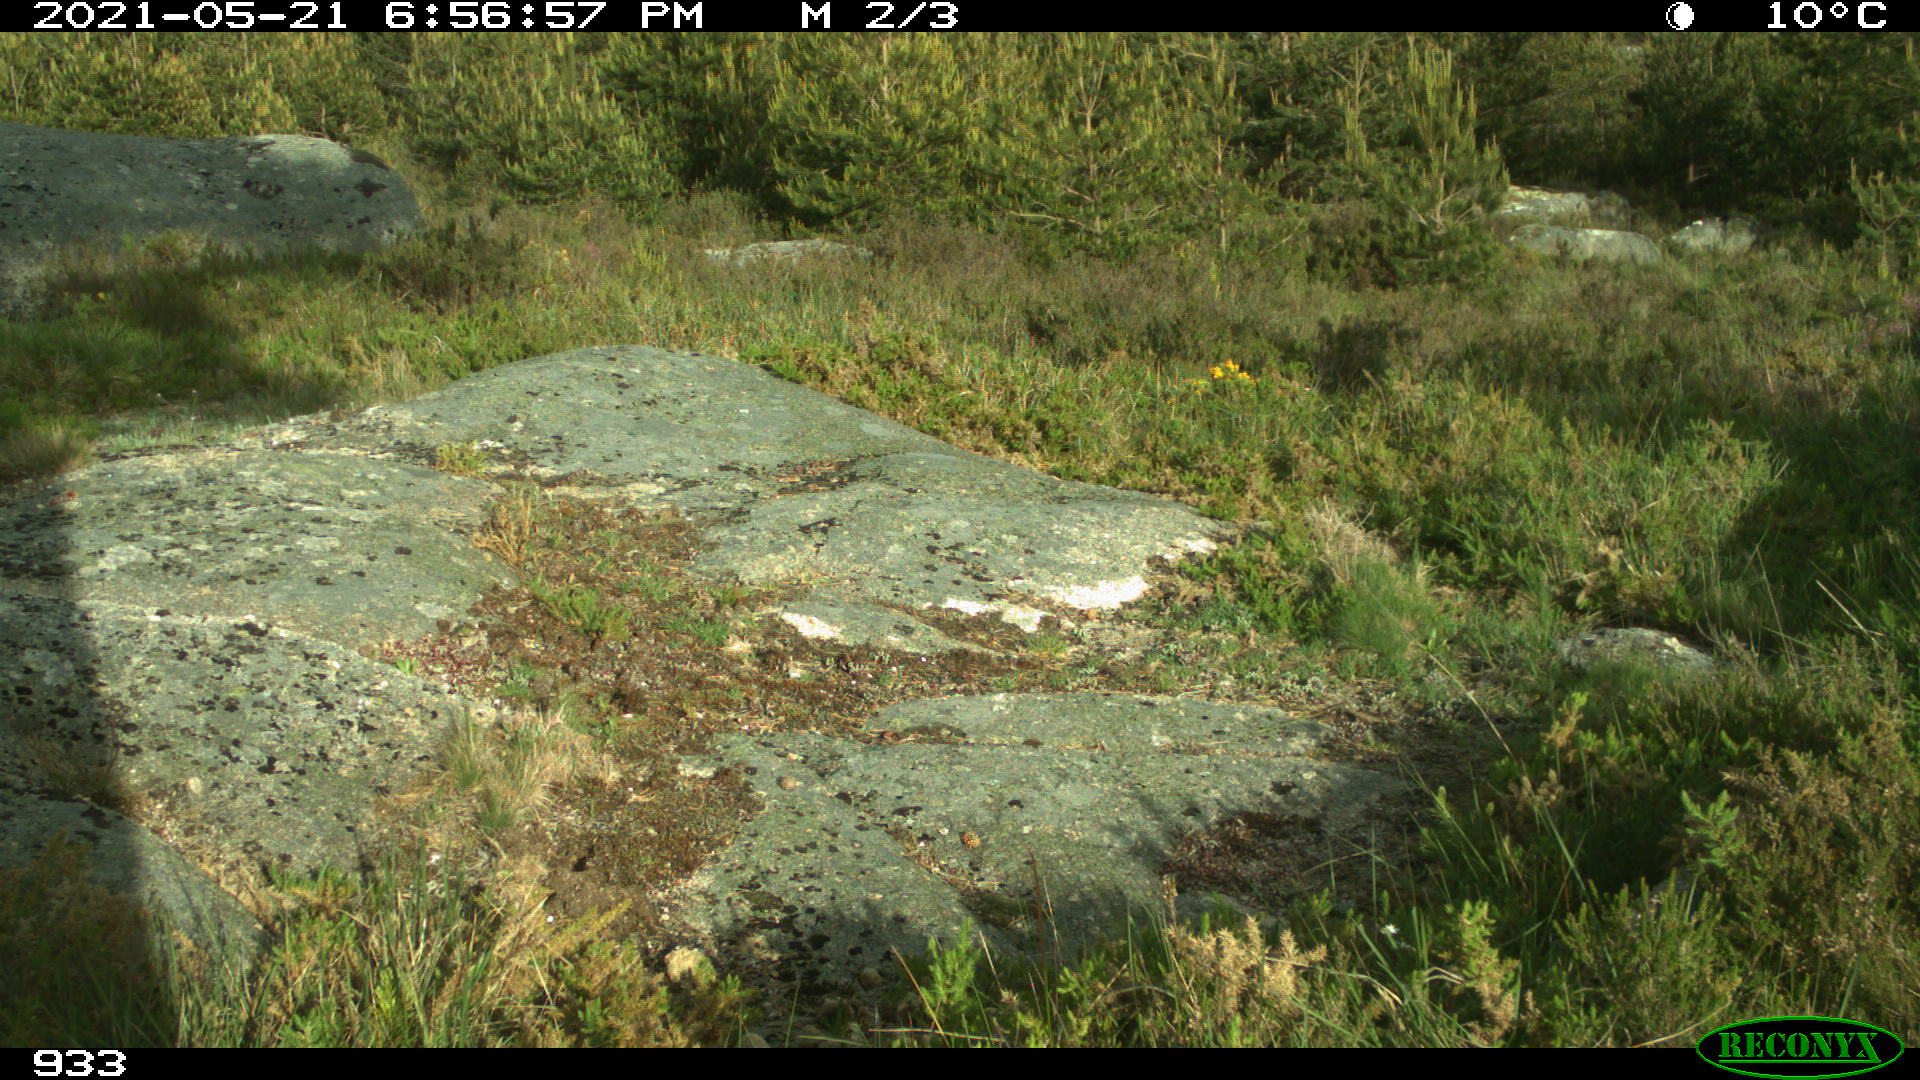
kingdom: Animalia
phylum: Chordata
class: Mammalia
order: Perissodactyla
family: Equidae
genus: Equus
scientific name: Equus caballus
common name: Horse
